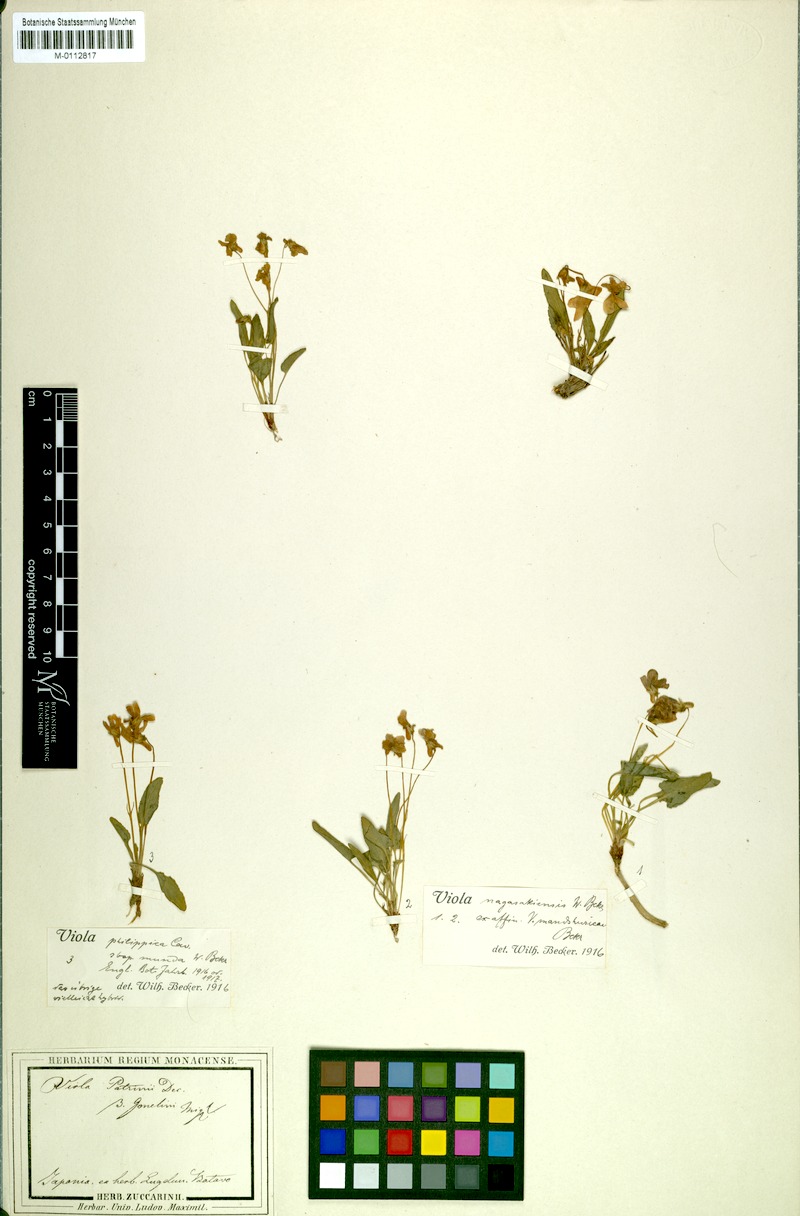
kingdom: Plantae
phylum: Tracheophyta
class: Magnoliopsida
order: Malpighiales
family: Violaceae
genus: Viola
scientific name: Viola mandshurica
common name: Manchuria violet
